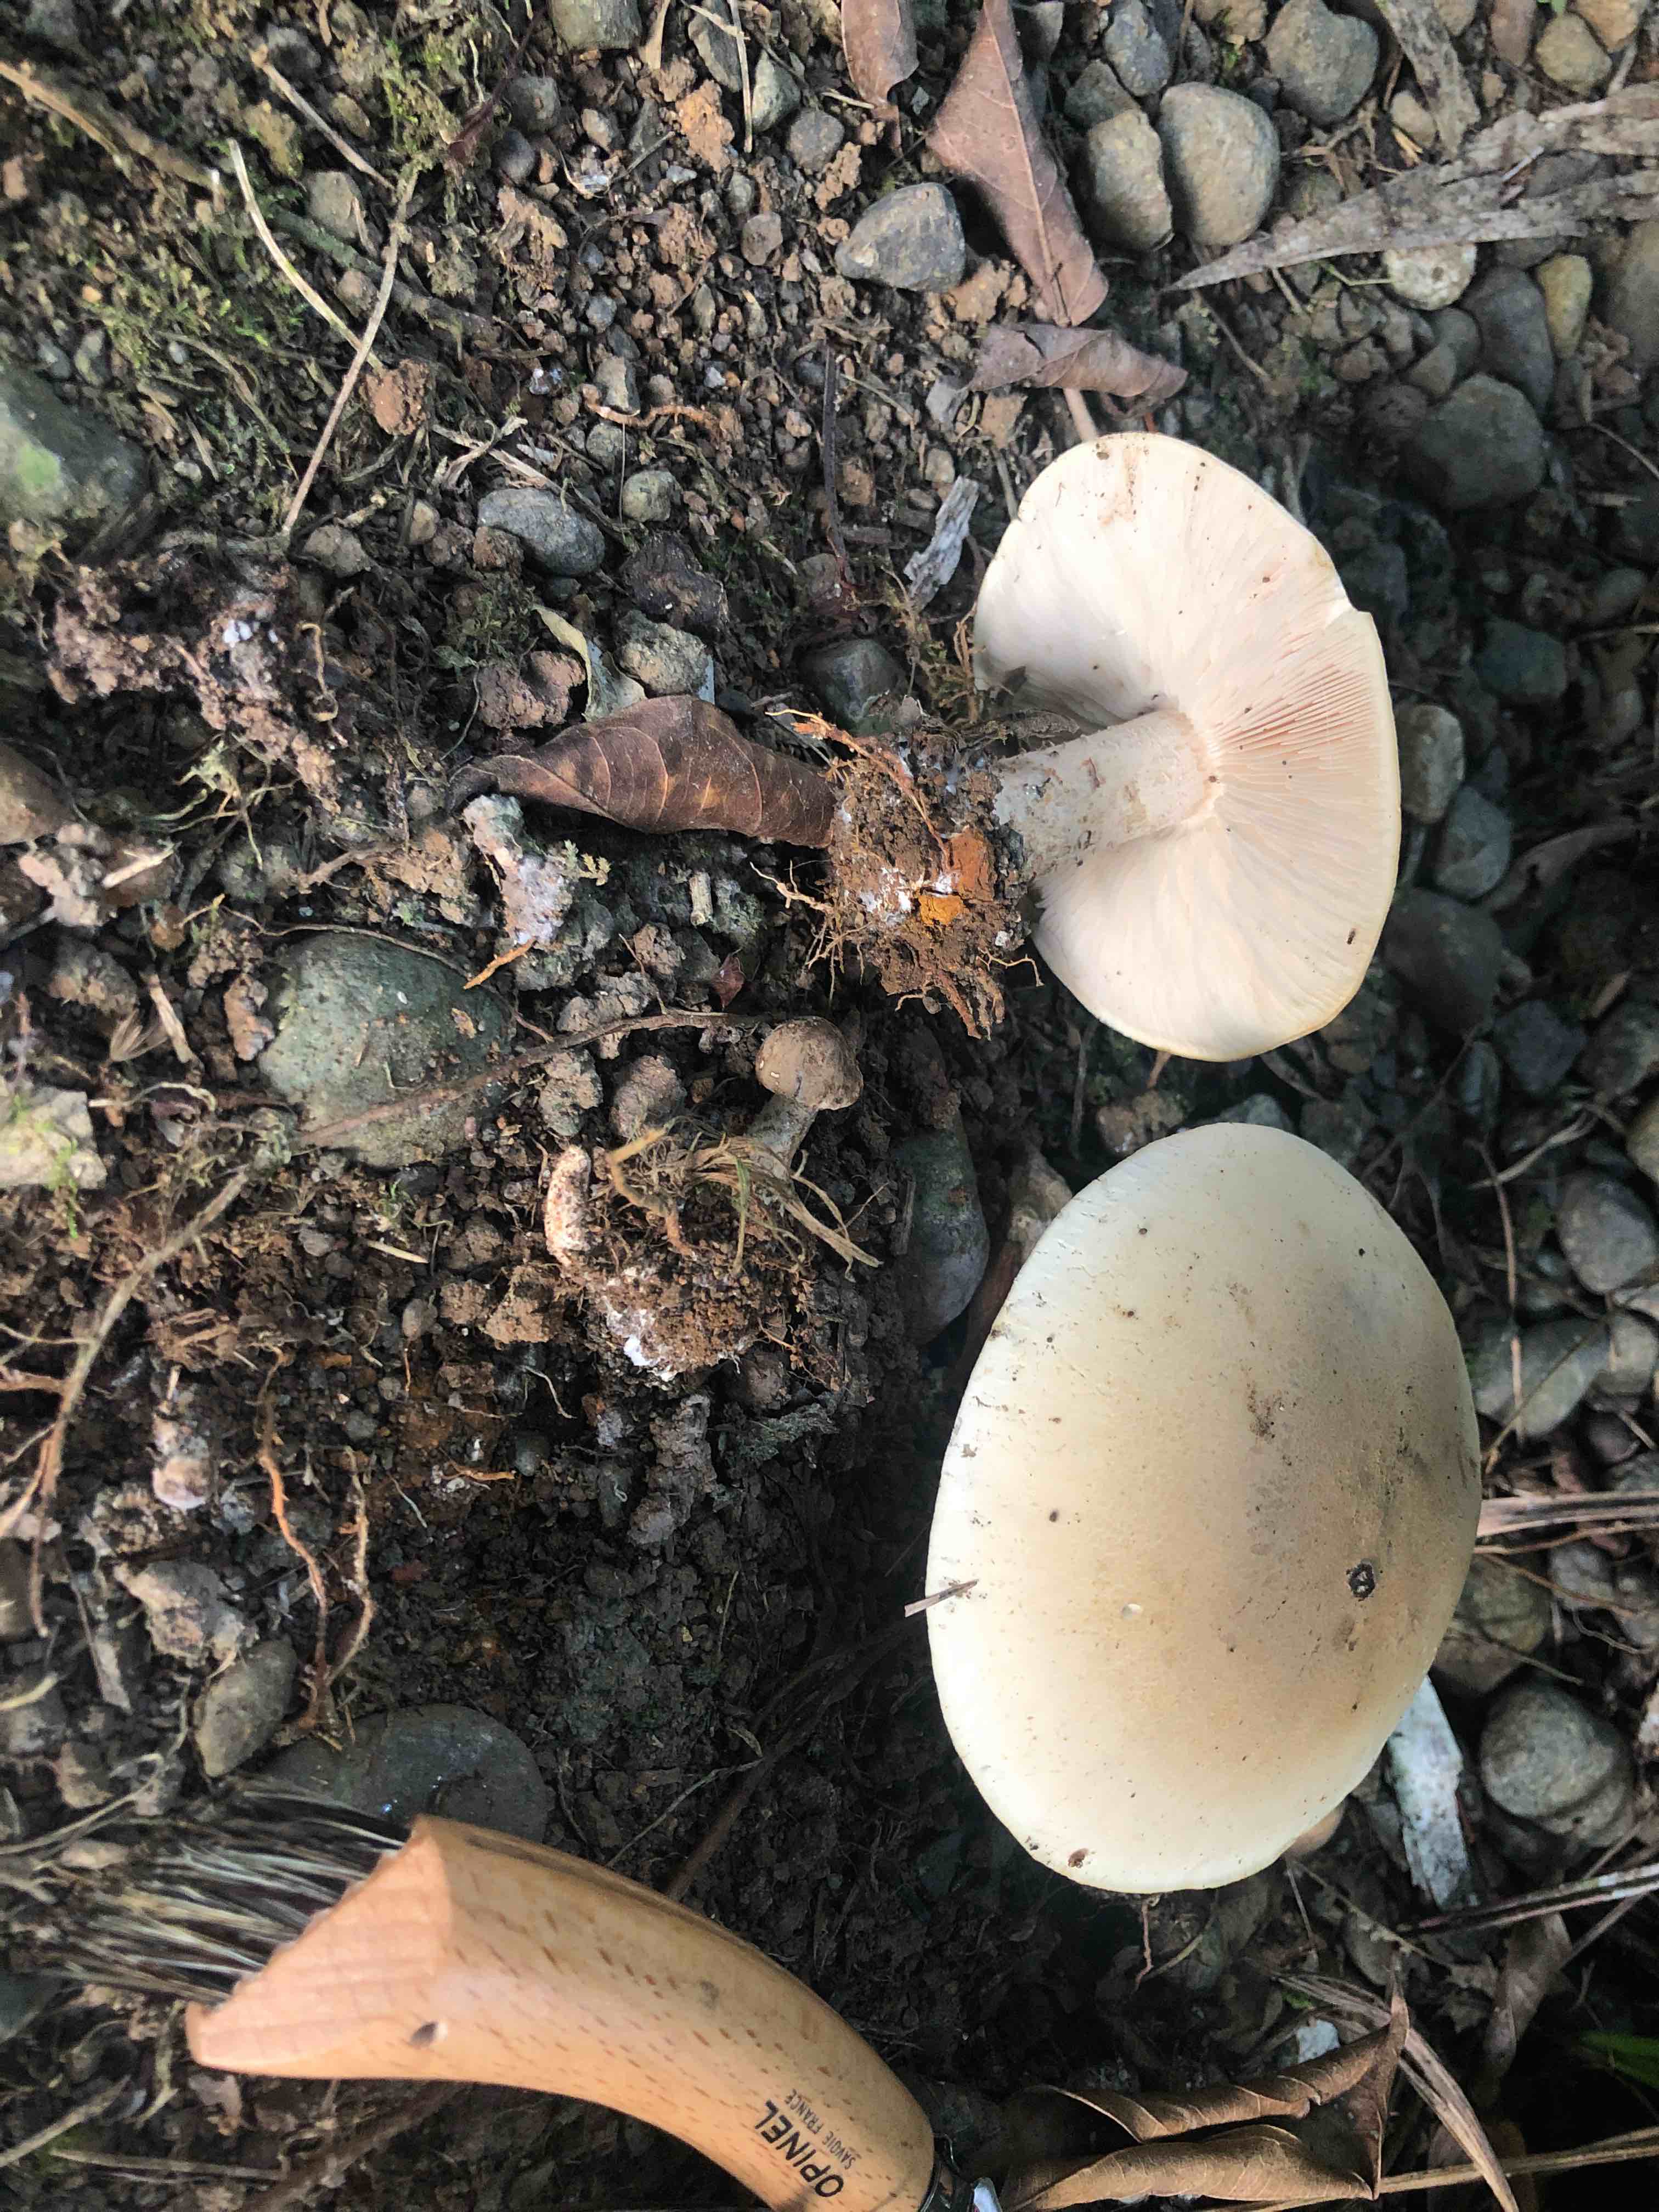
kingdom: Fungi
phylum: Basidiomycota
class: Agaricomycetes
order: Agaricales
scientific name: Agaricales
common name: champignonordenen
